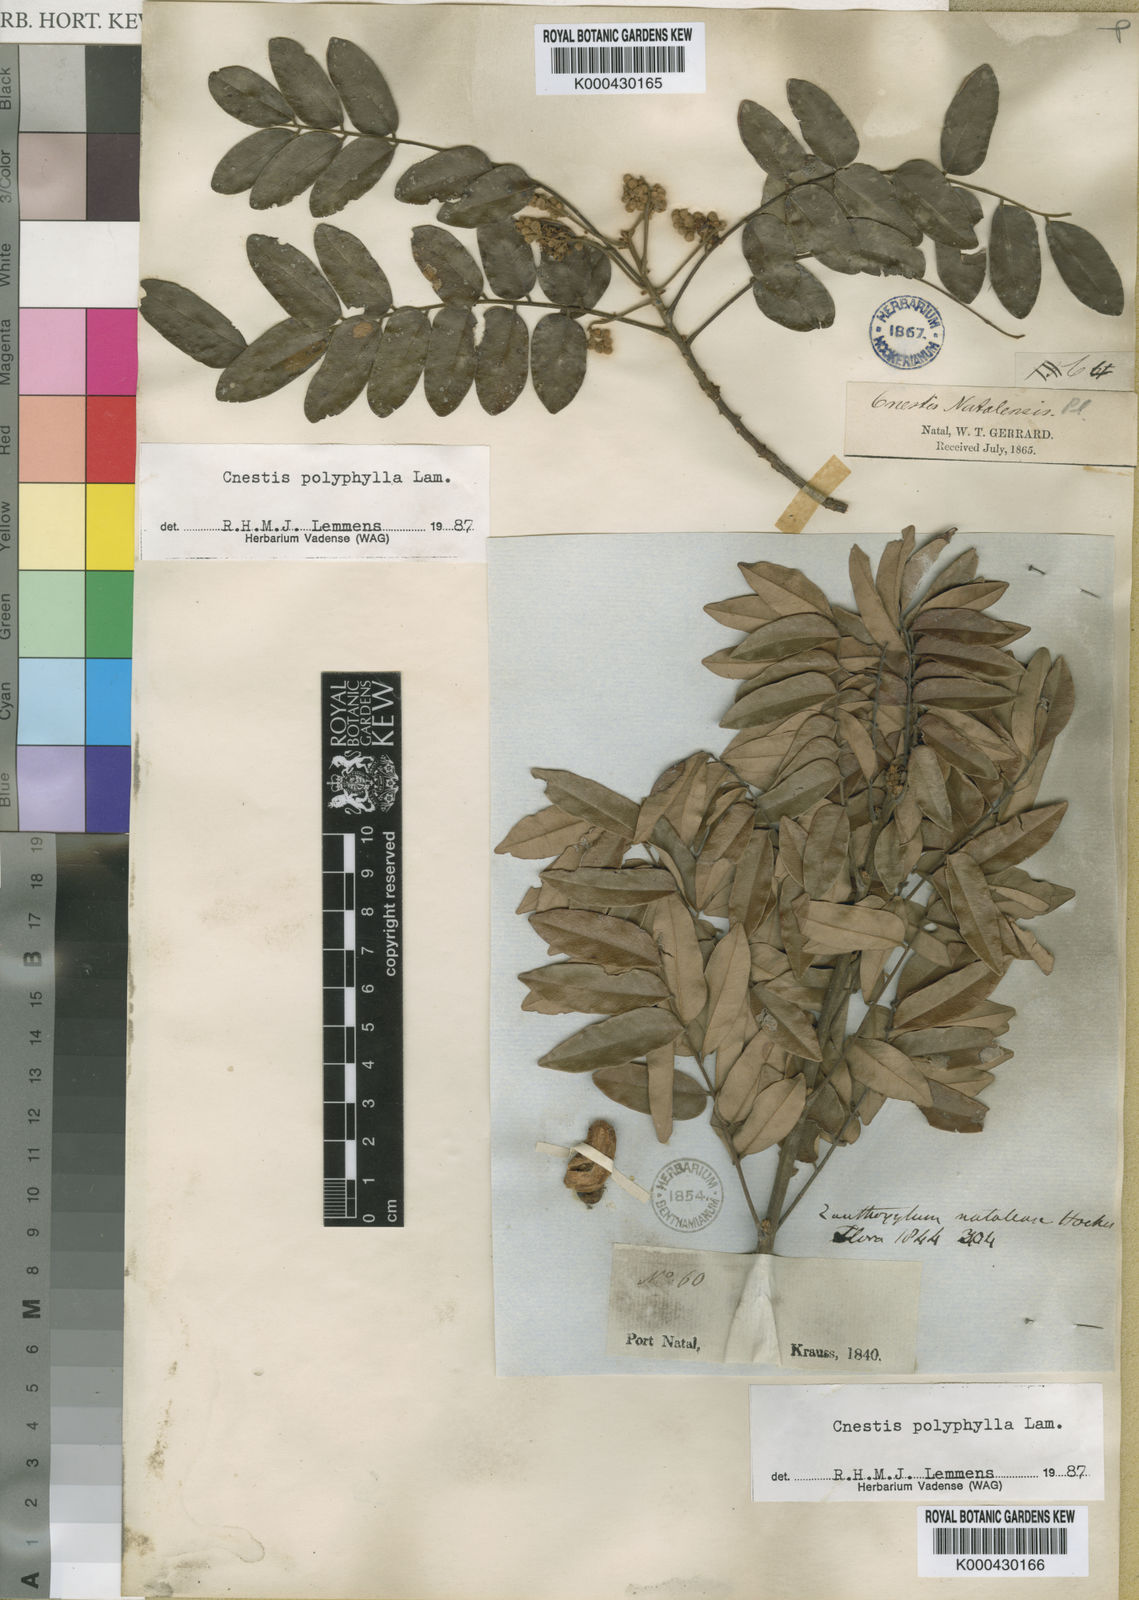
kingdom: Plantae
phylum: Tracheophyta
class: Magnoliopsida
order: Oxalidales
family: Connaraceae
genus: Cnestis
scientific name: Cnestis polyphylla
